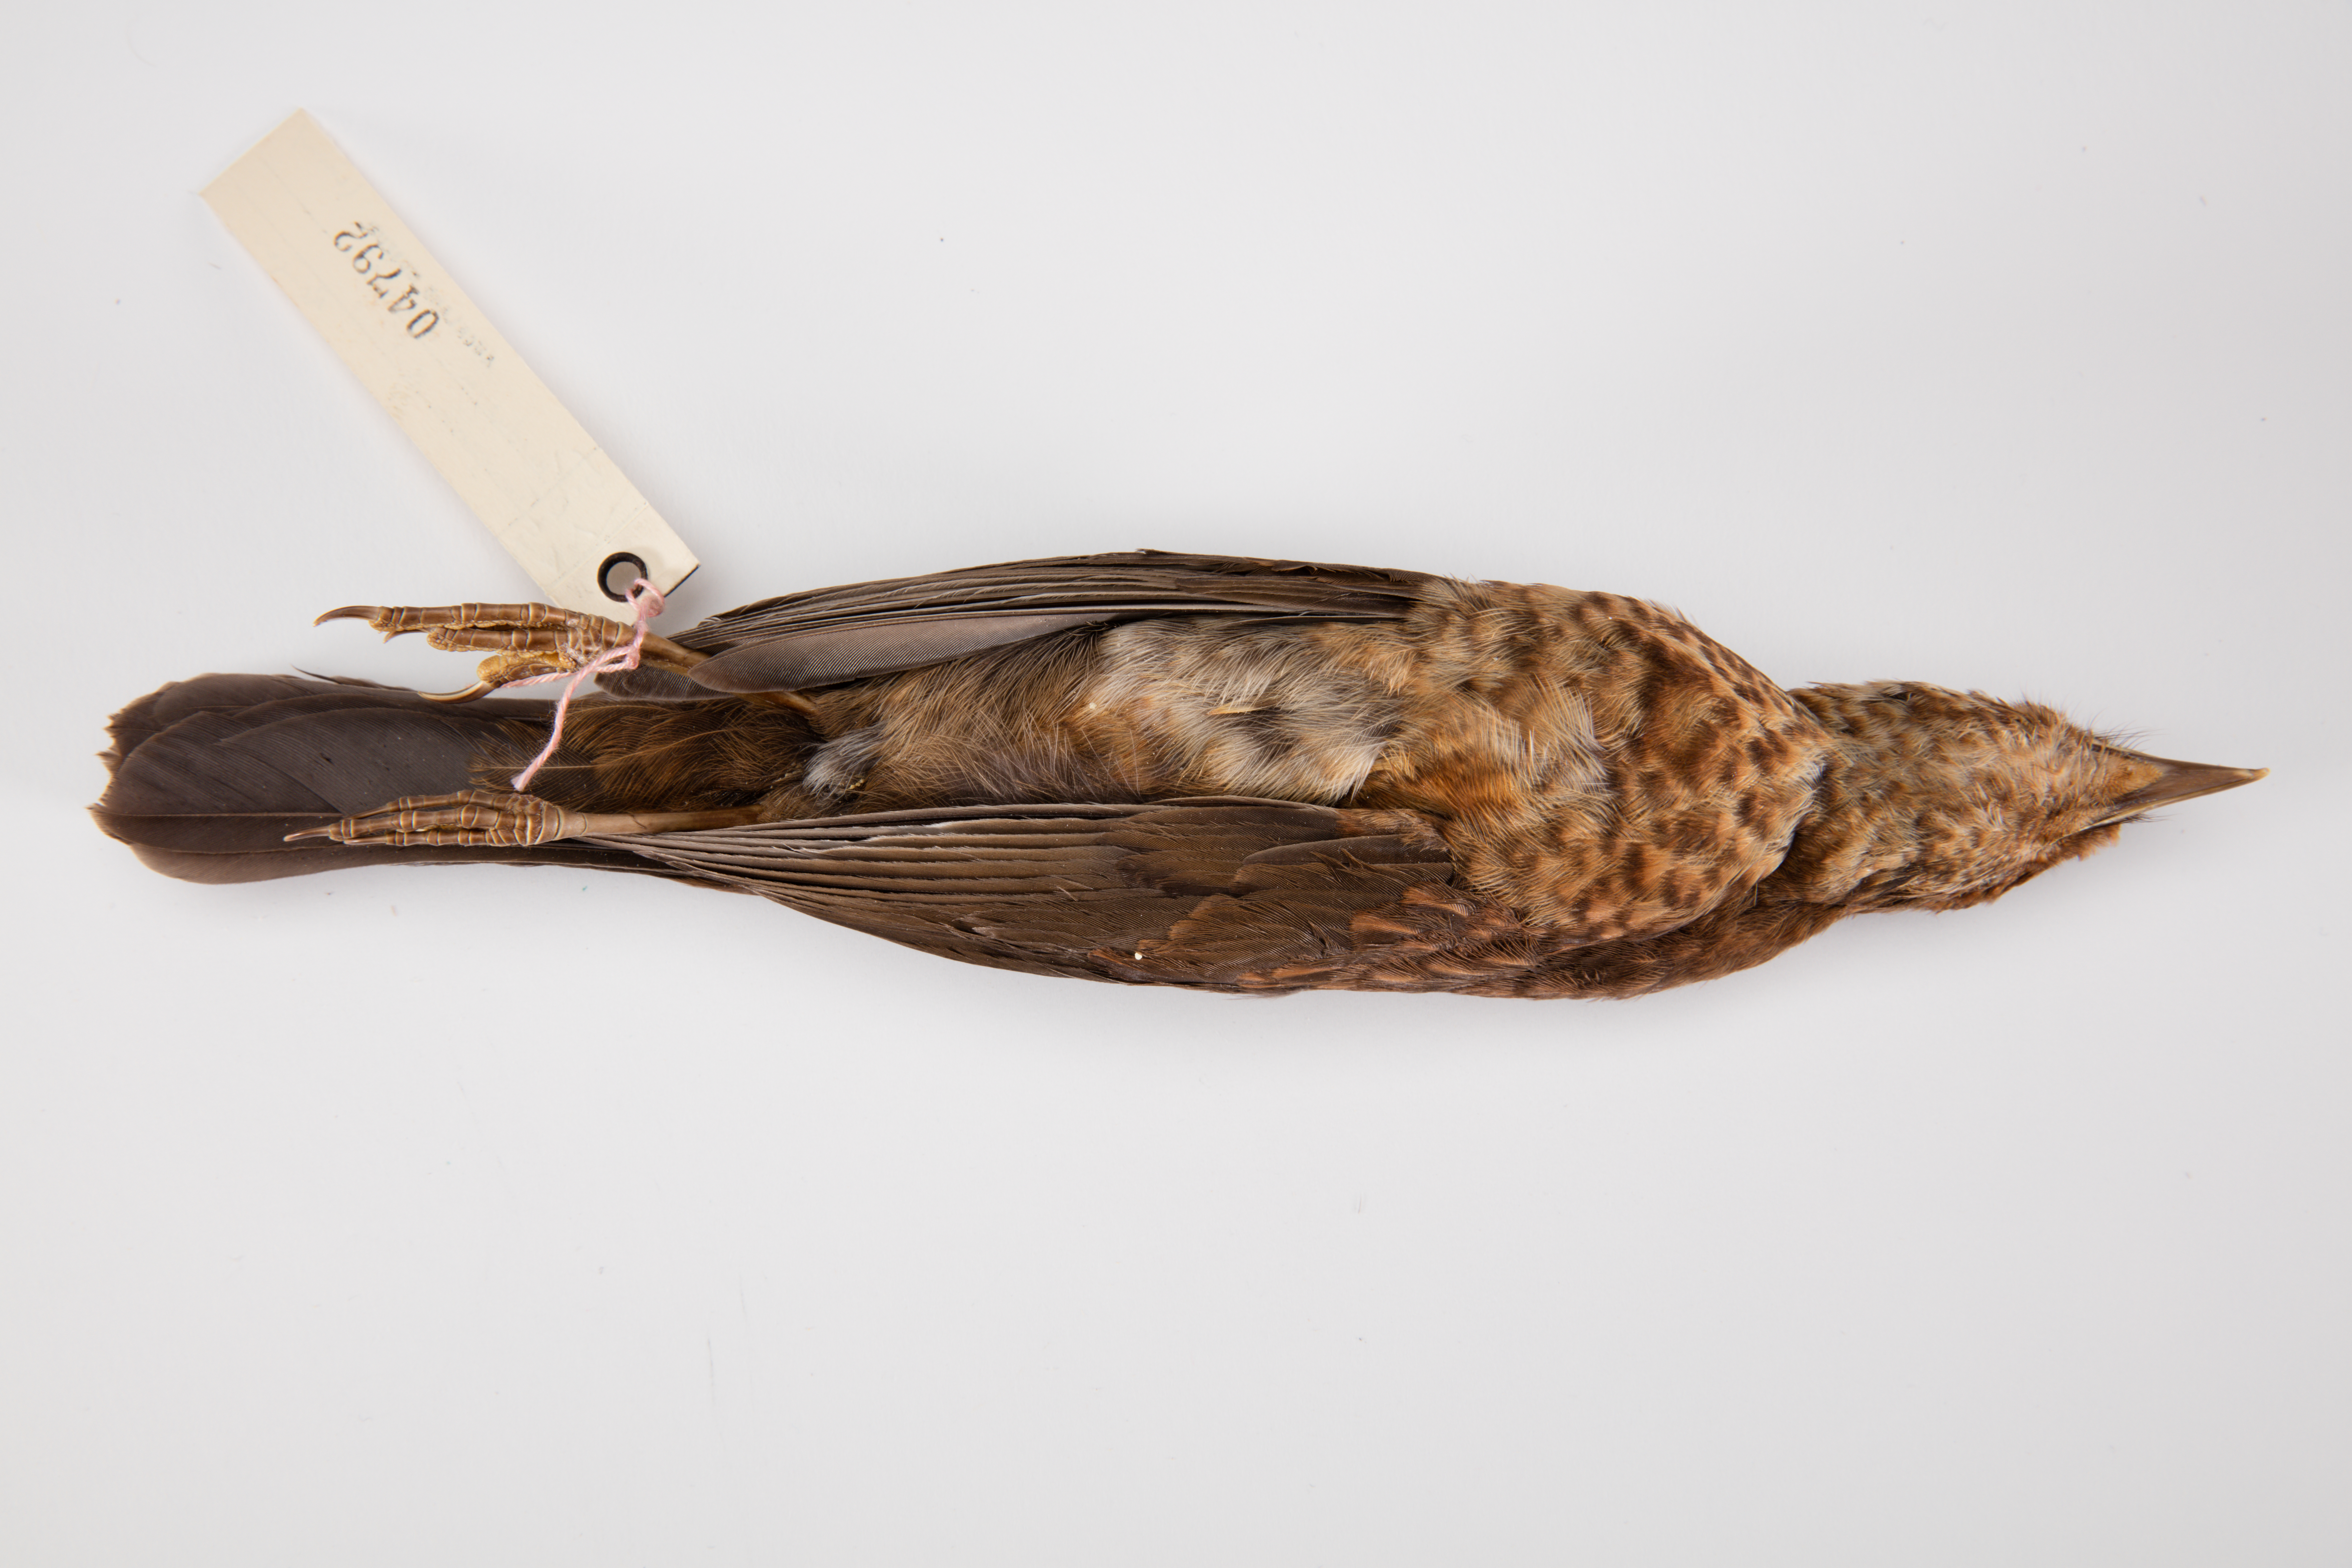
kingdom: Animalia
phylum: Chordata
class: Aves
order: Passeriformes
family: Turdidae
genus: Turdus
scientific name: Turdus merula
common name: Common blackbird
